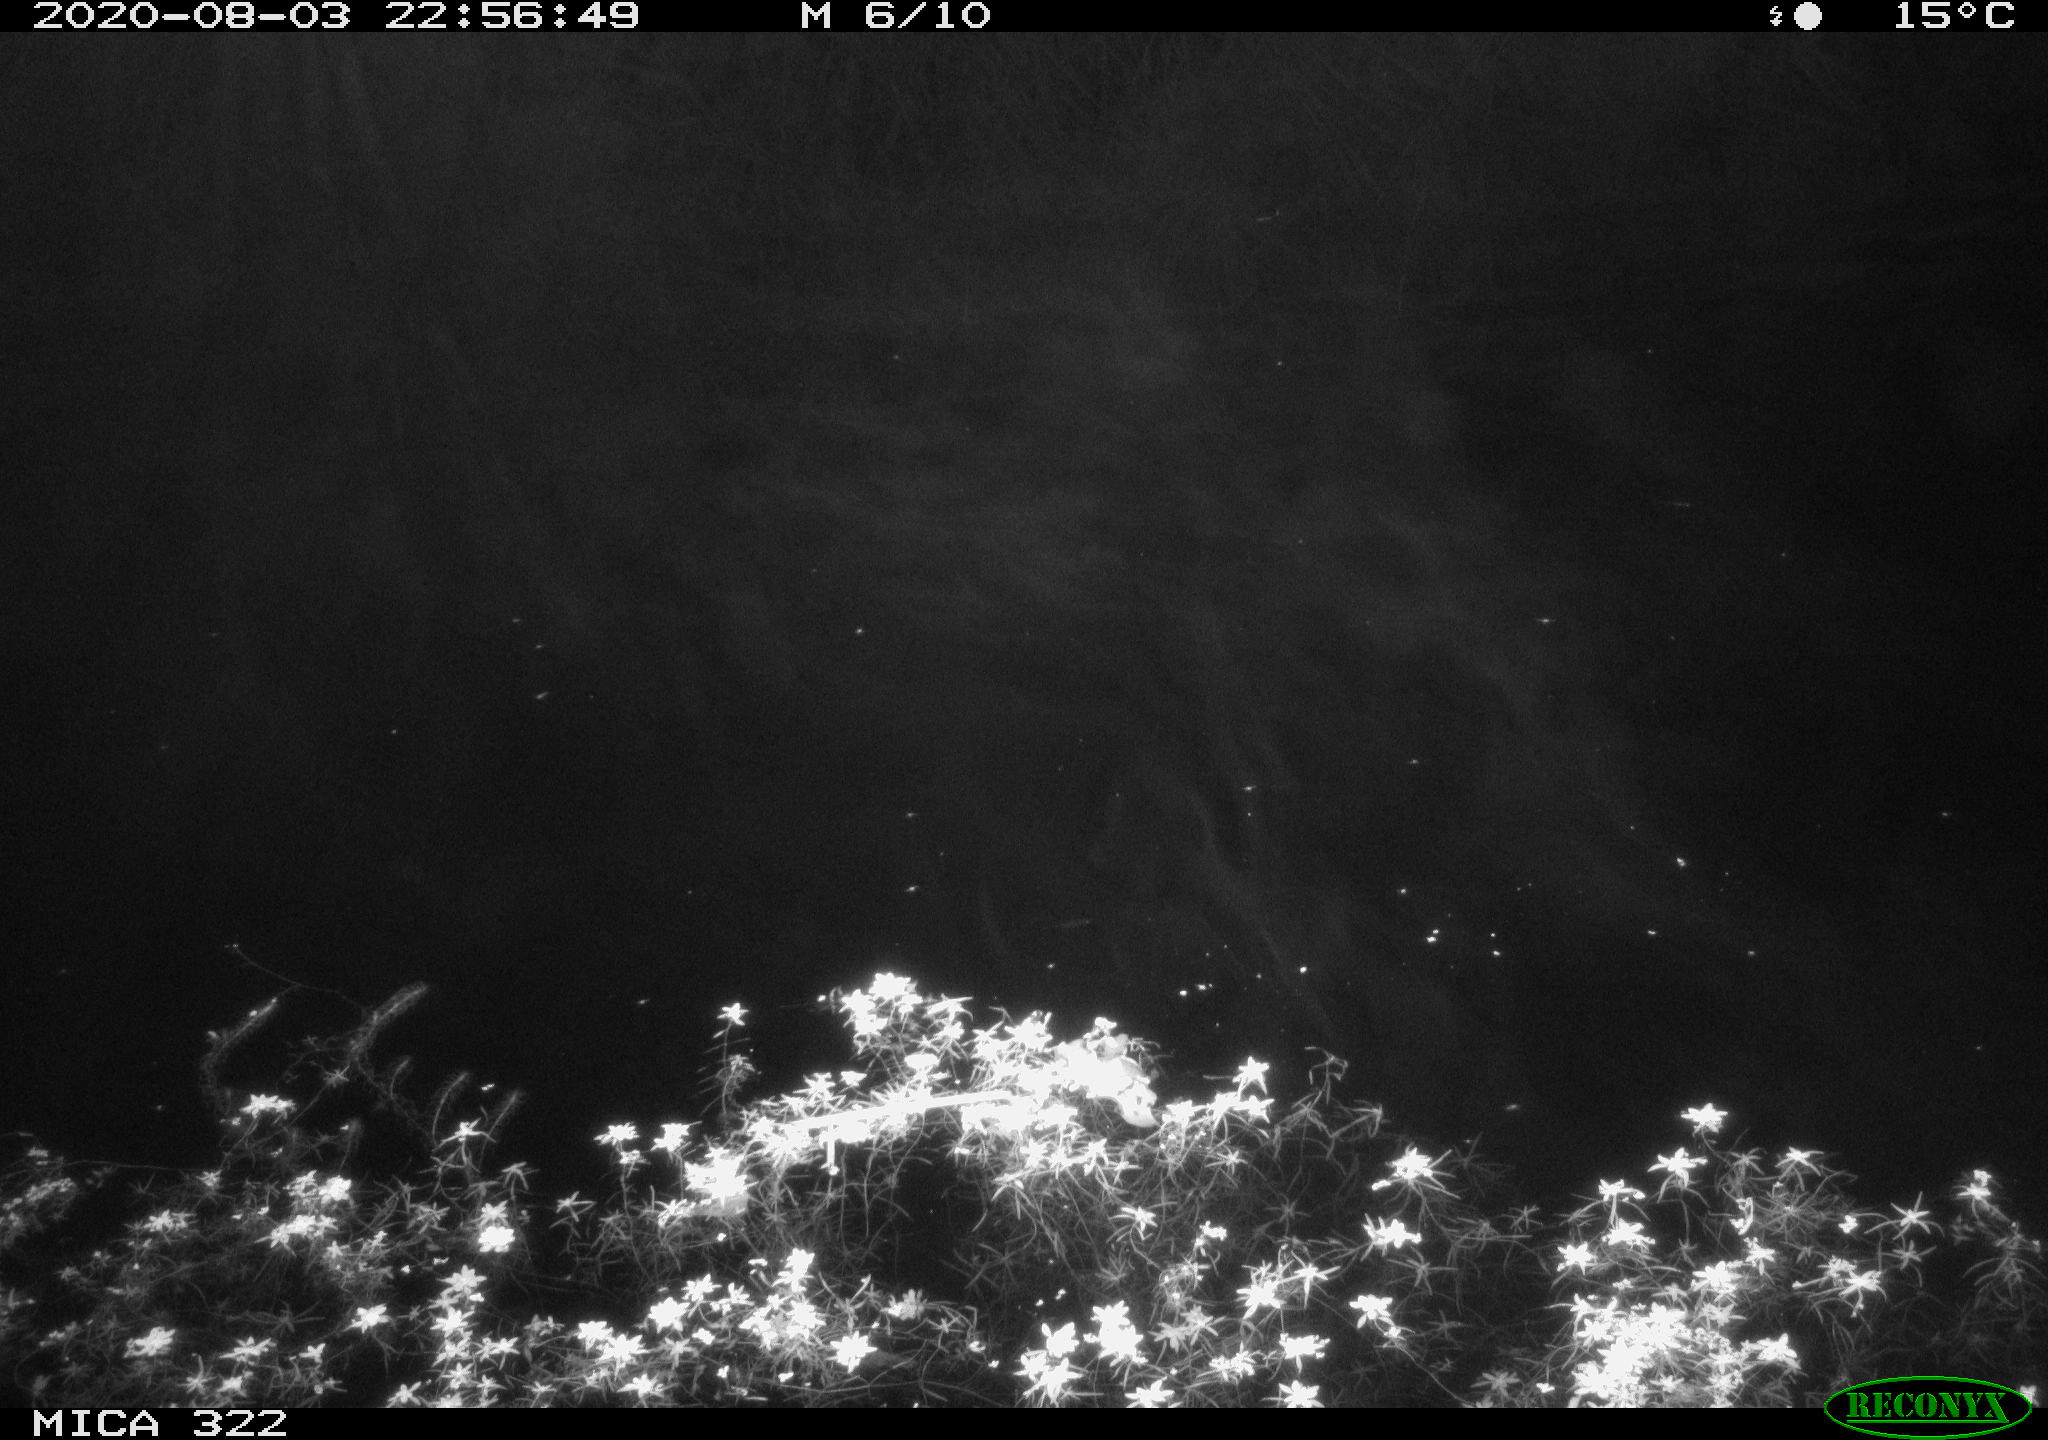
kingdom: Animalia
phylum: Chordata
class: Mammalia
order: Rodentia
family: Muridae
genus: Rattus
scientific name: Rattus norvegicus
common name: Brown rat
